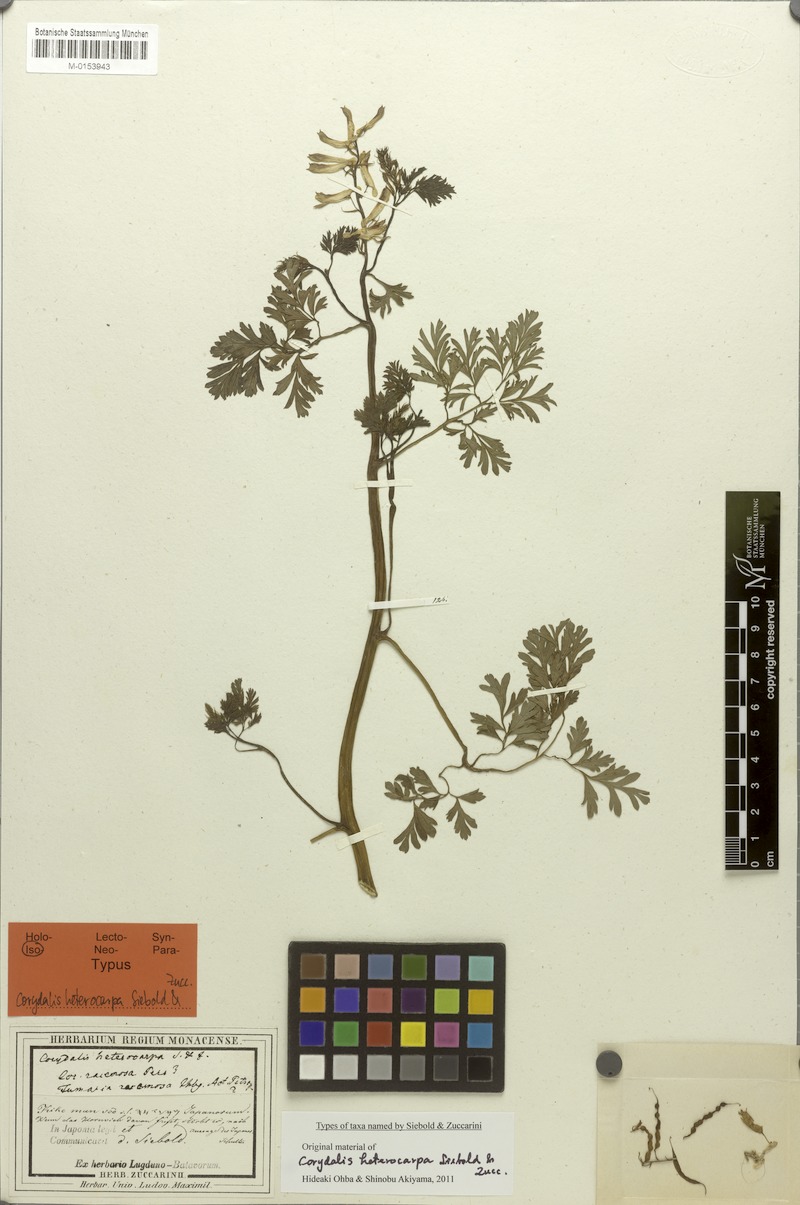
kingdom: Plantae
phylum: Tracheophyta
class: Magnoliopsida
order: Ranunculales
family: Papaveraceae
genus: Corydalis
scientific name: Corydalis heterocarpa
